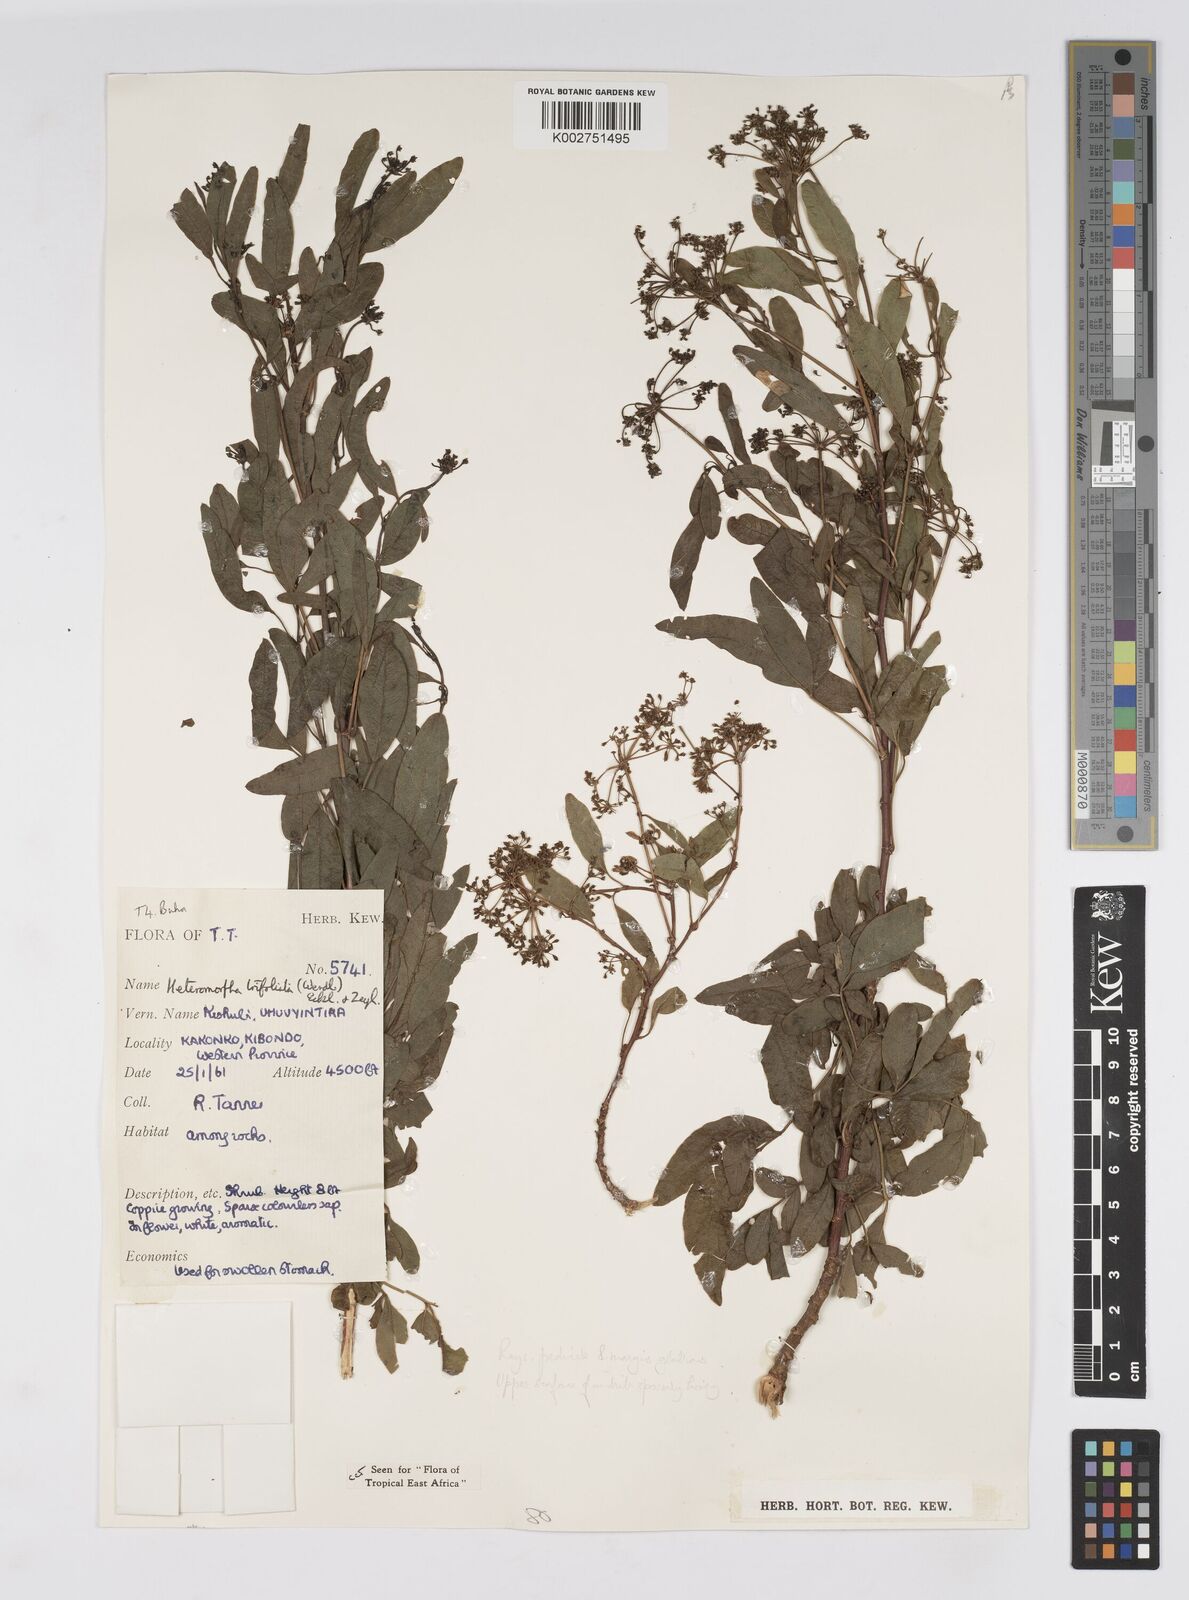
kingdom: Plantae
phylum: Tracheophyta
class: Magnoliopsida
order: Apiales
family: Apiaceae
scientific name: Apiaceae
